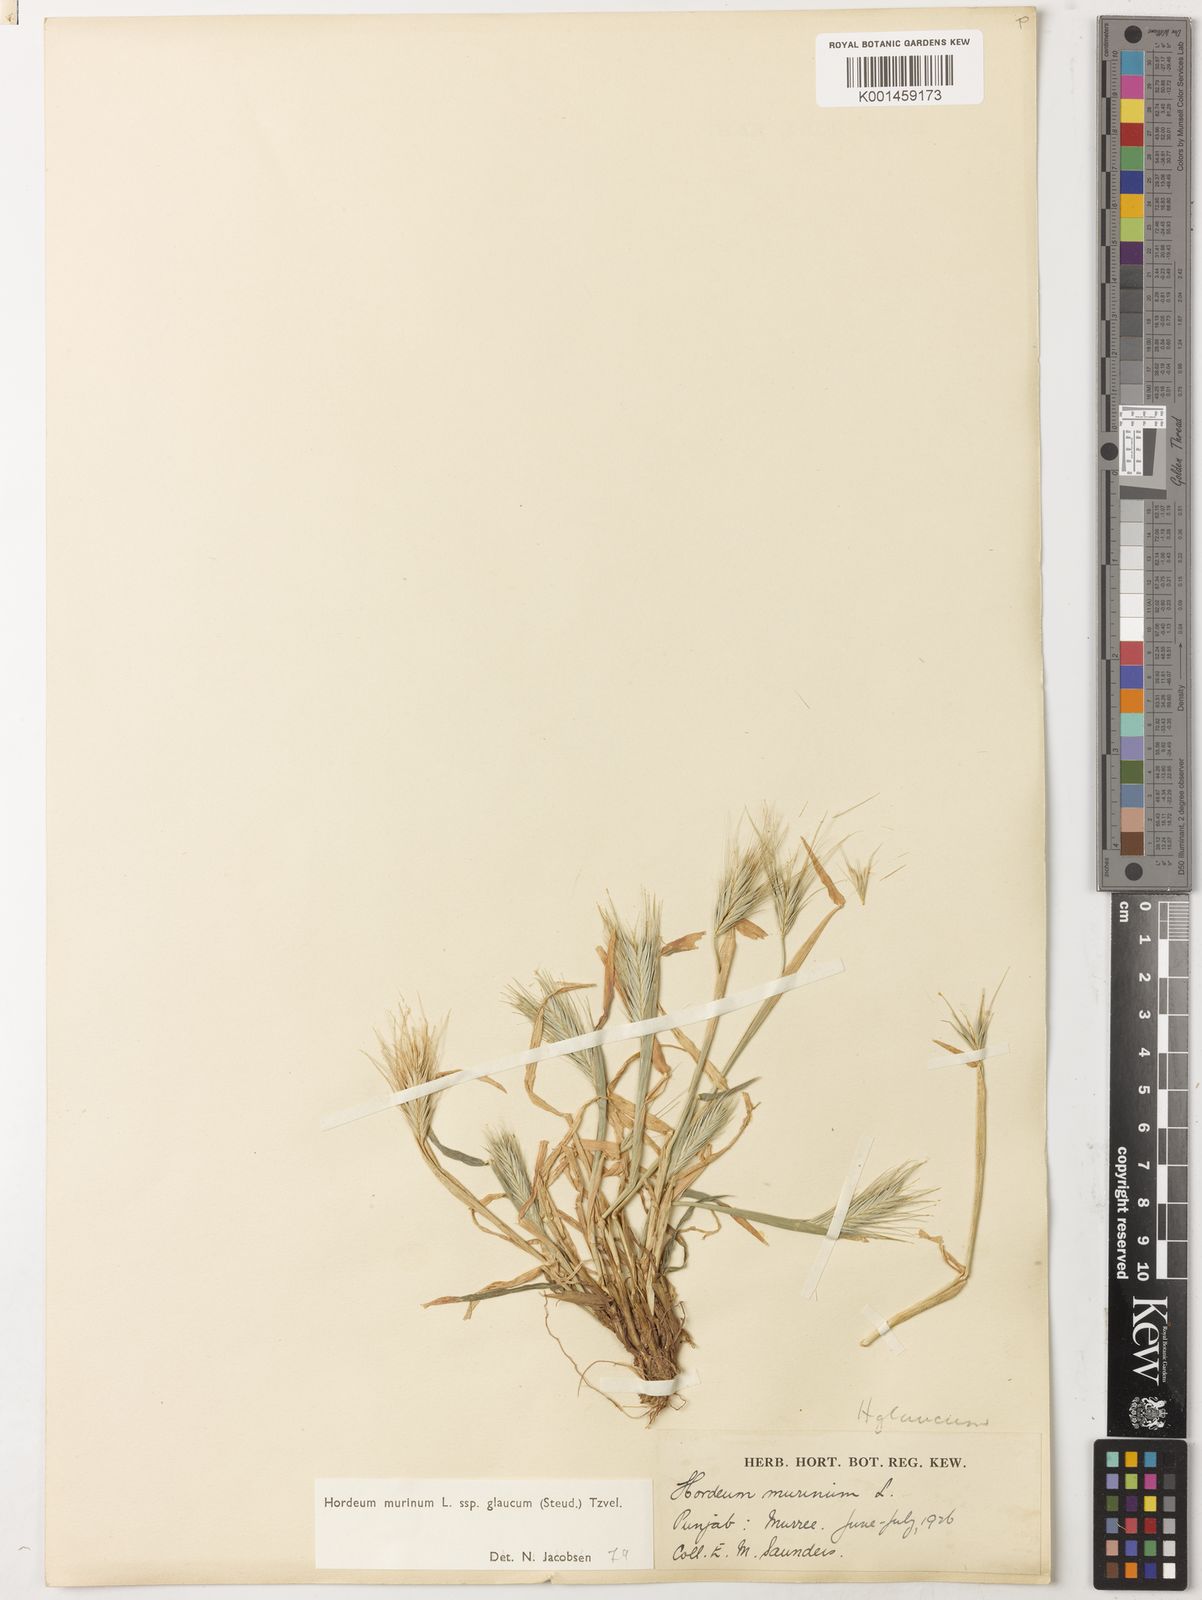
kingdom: Plantae
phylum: Tracheophyta
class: Liliopsida
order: Poales
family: Poaceae
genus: Hordeum
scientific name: Hordeum murinum
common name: Wall barley
